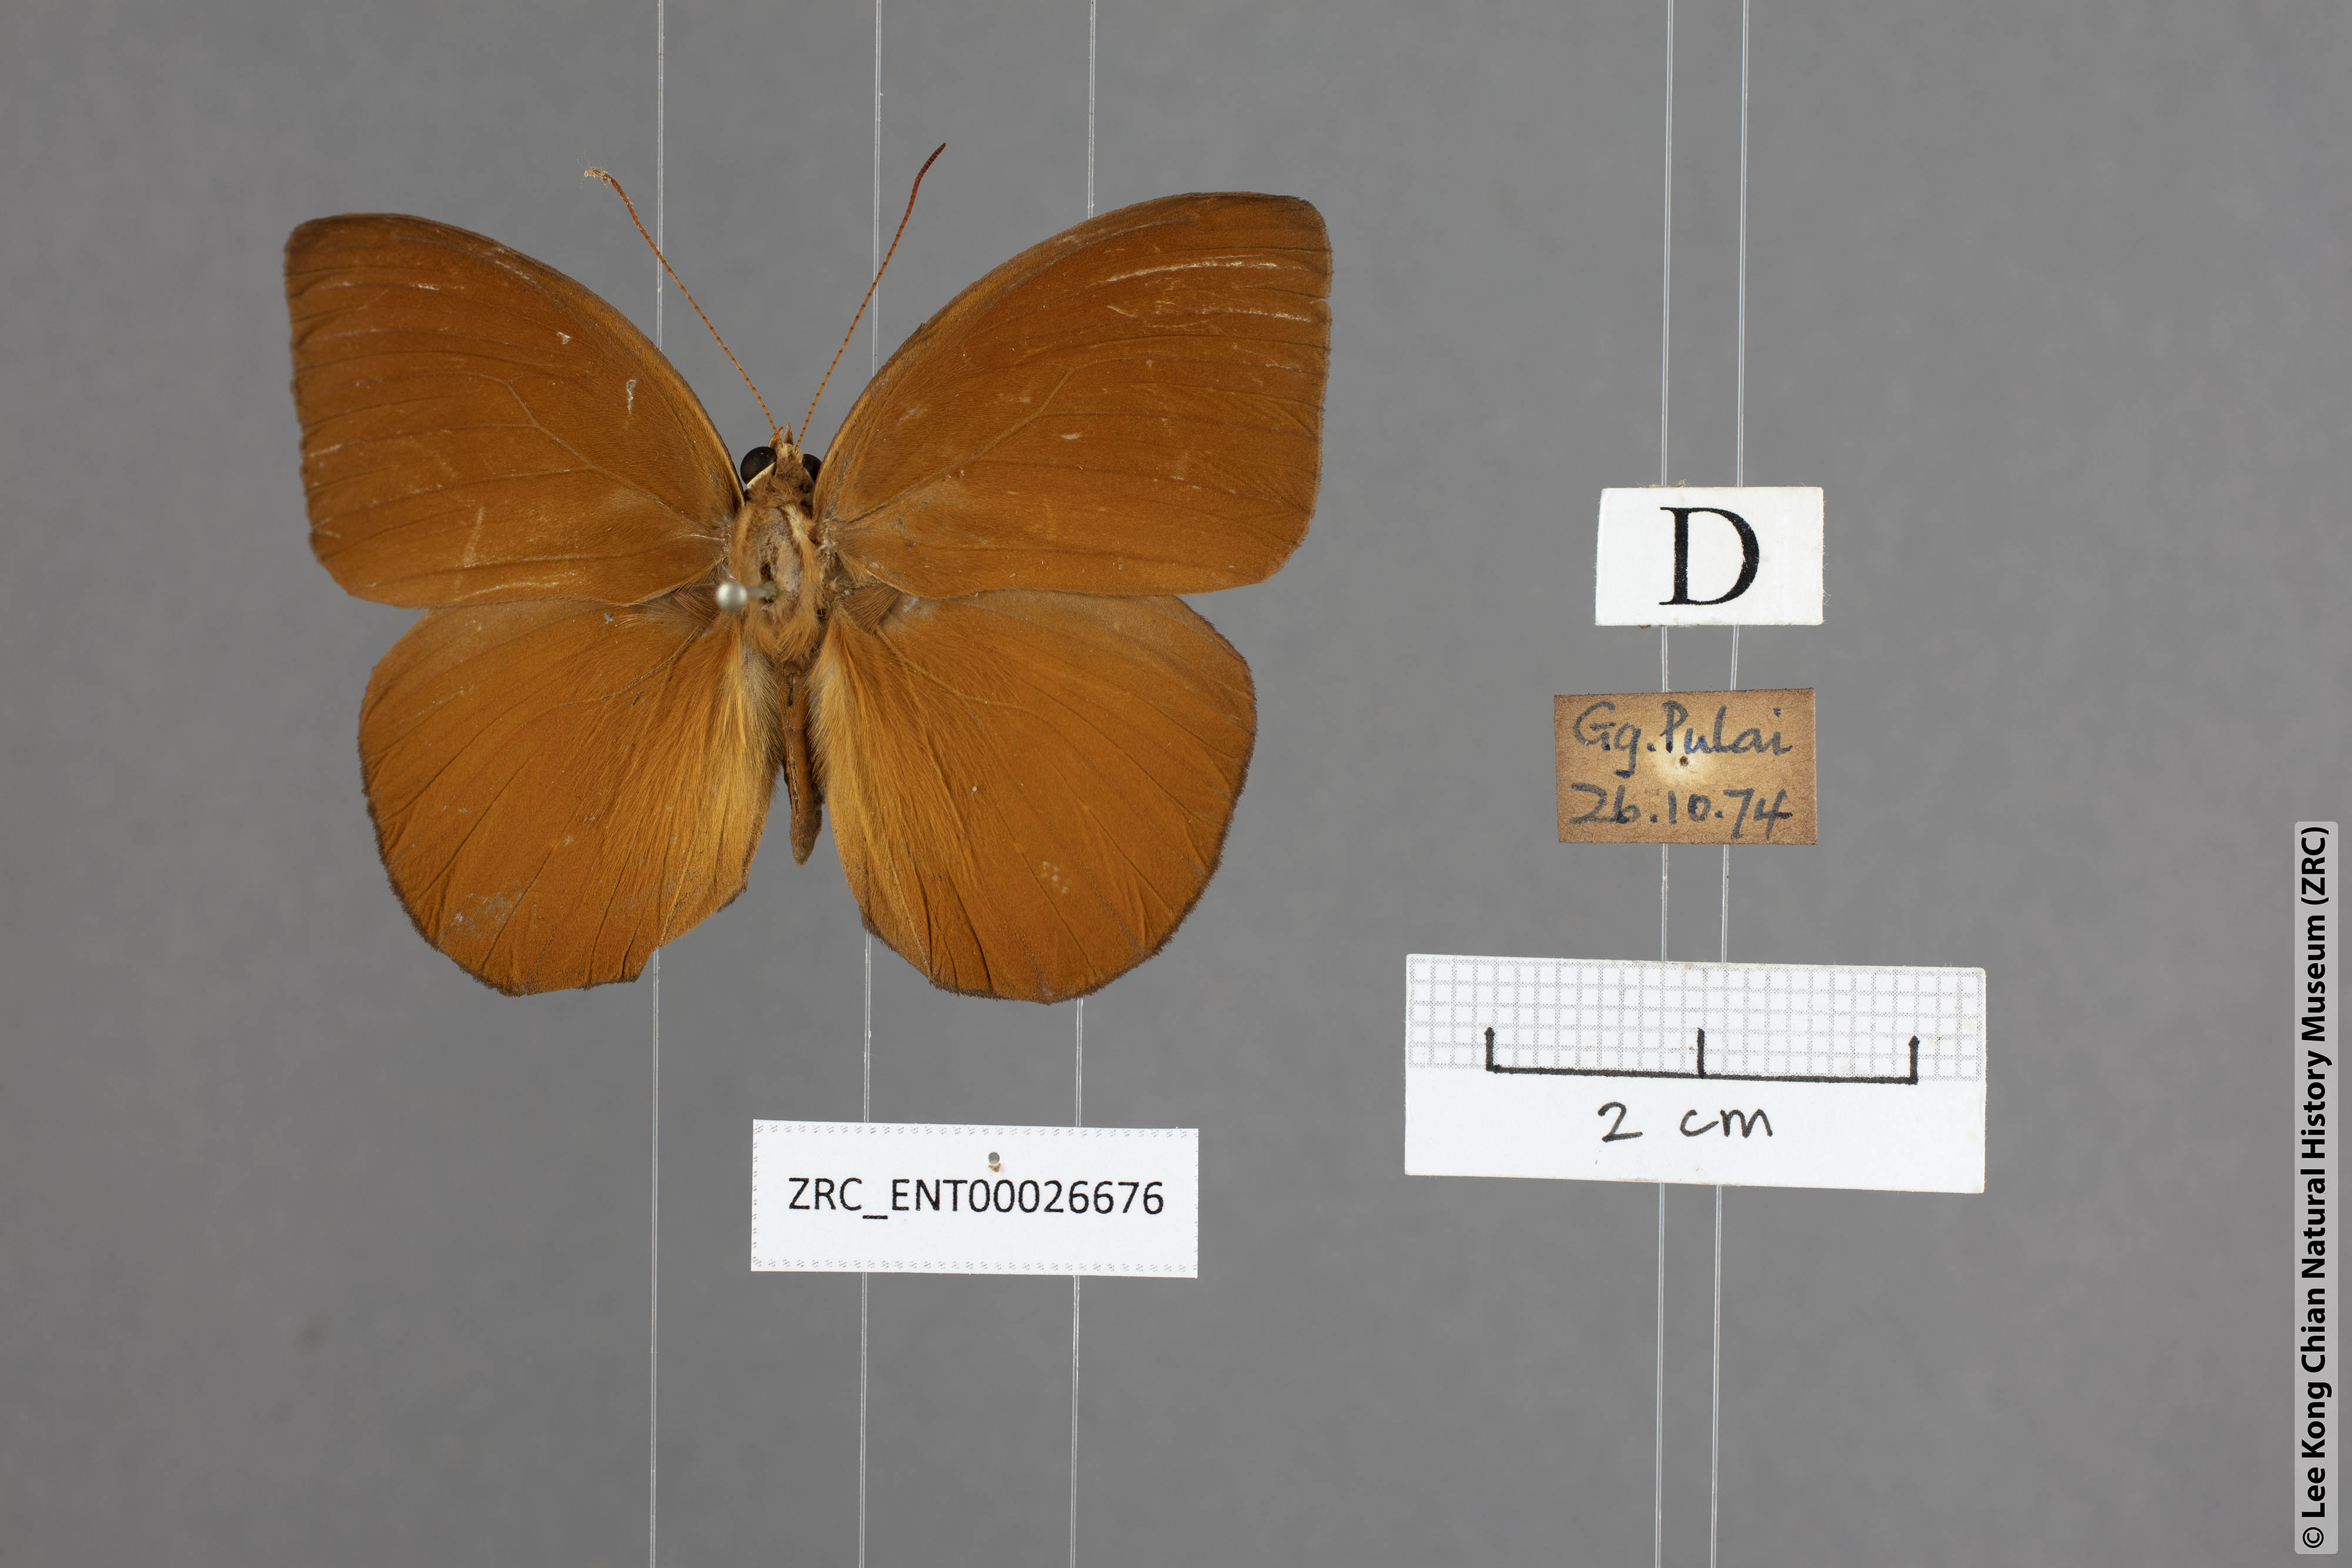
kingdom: Animalia
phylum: Arthropoda
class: Insecta
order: Lepidoptera
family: Nymphalidae
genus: Faunis
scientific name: Faunis kirata
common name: Broad striped faun
